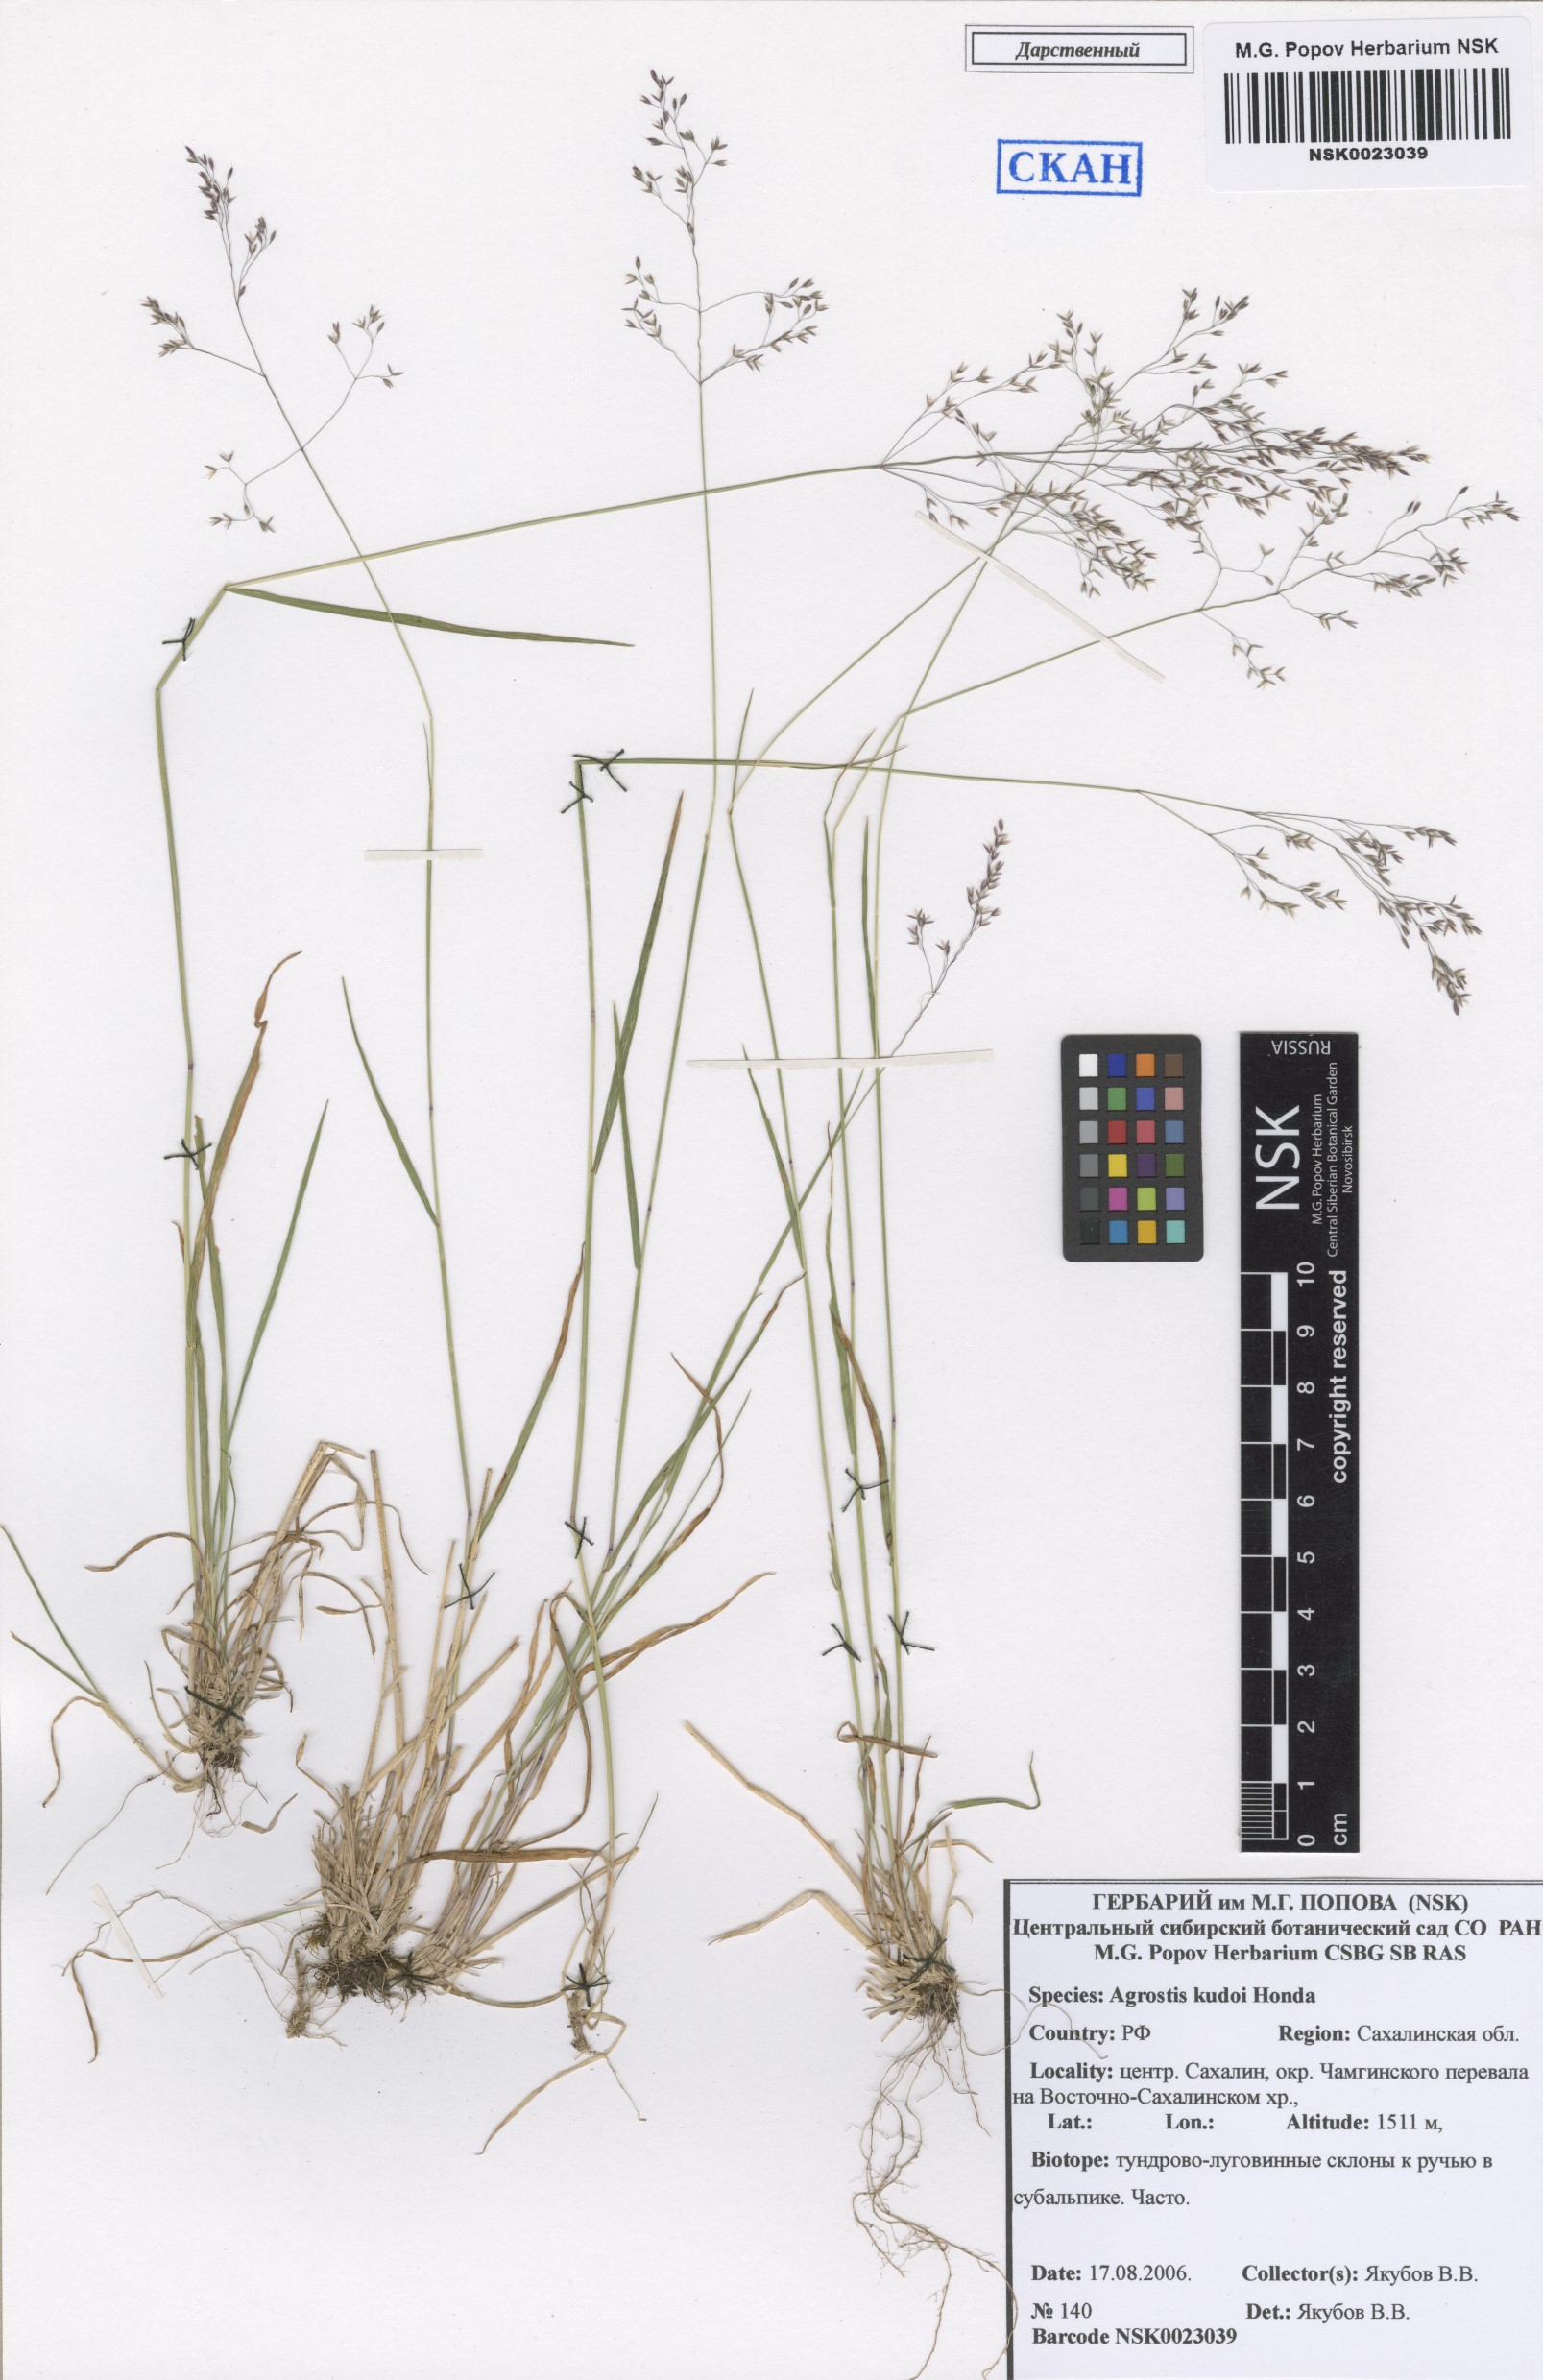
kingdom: Plantae
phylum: Tracheophyta
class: Liliopsida
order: Poales
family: Poaceae
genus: Agrostis
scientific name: Agrostis vinealis
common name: Brown bent
